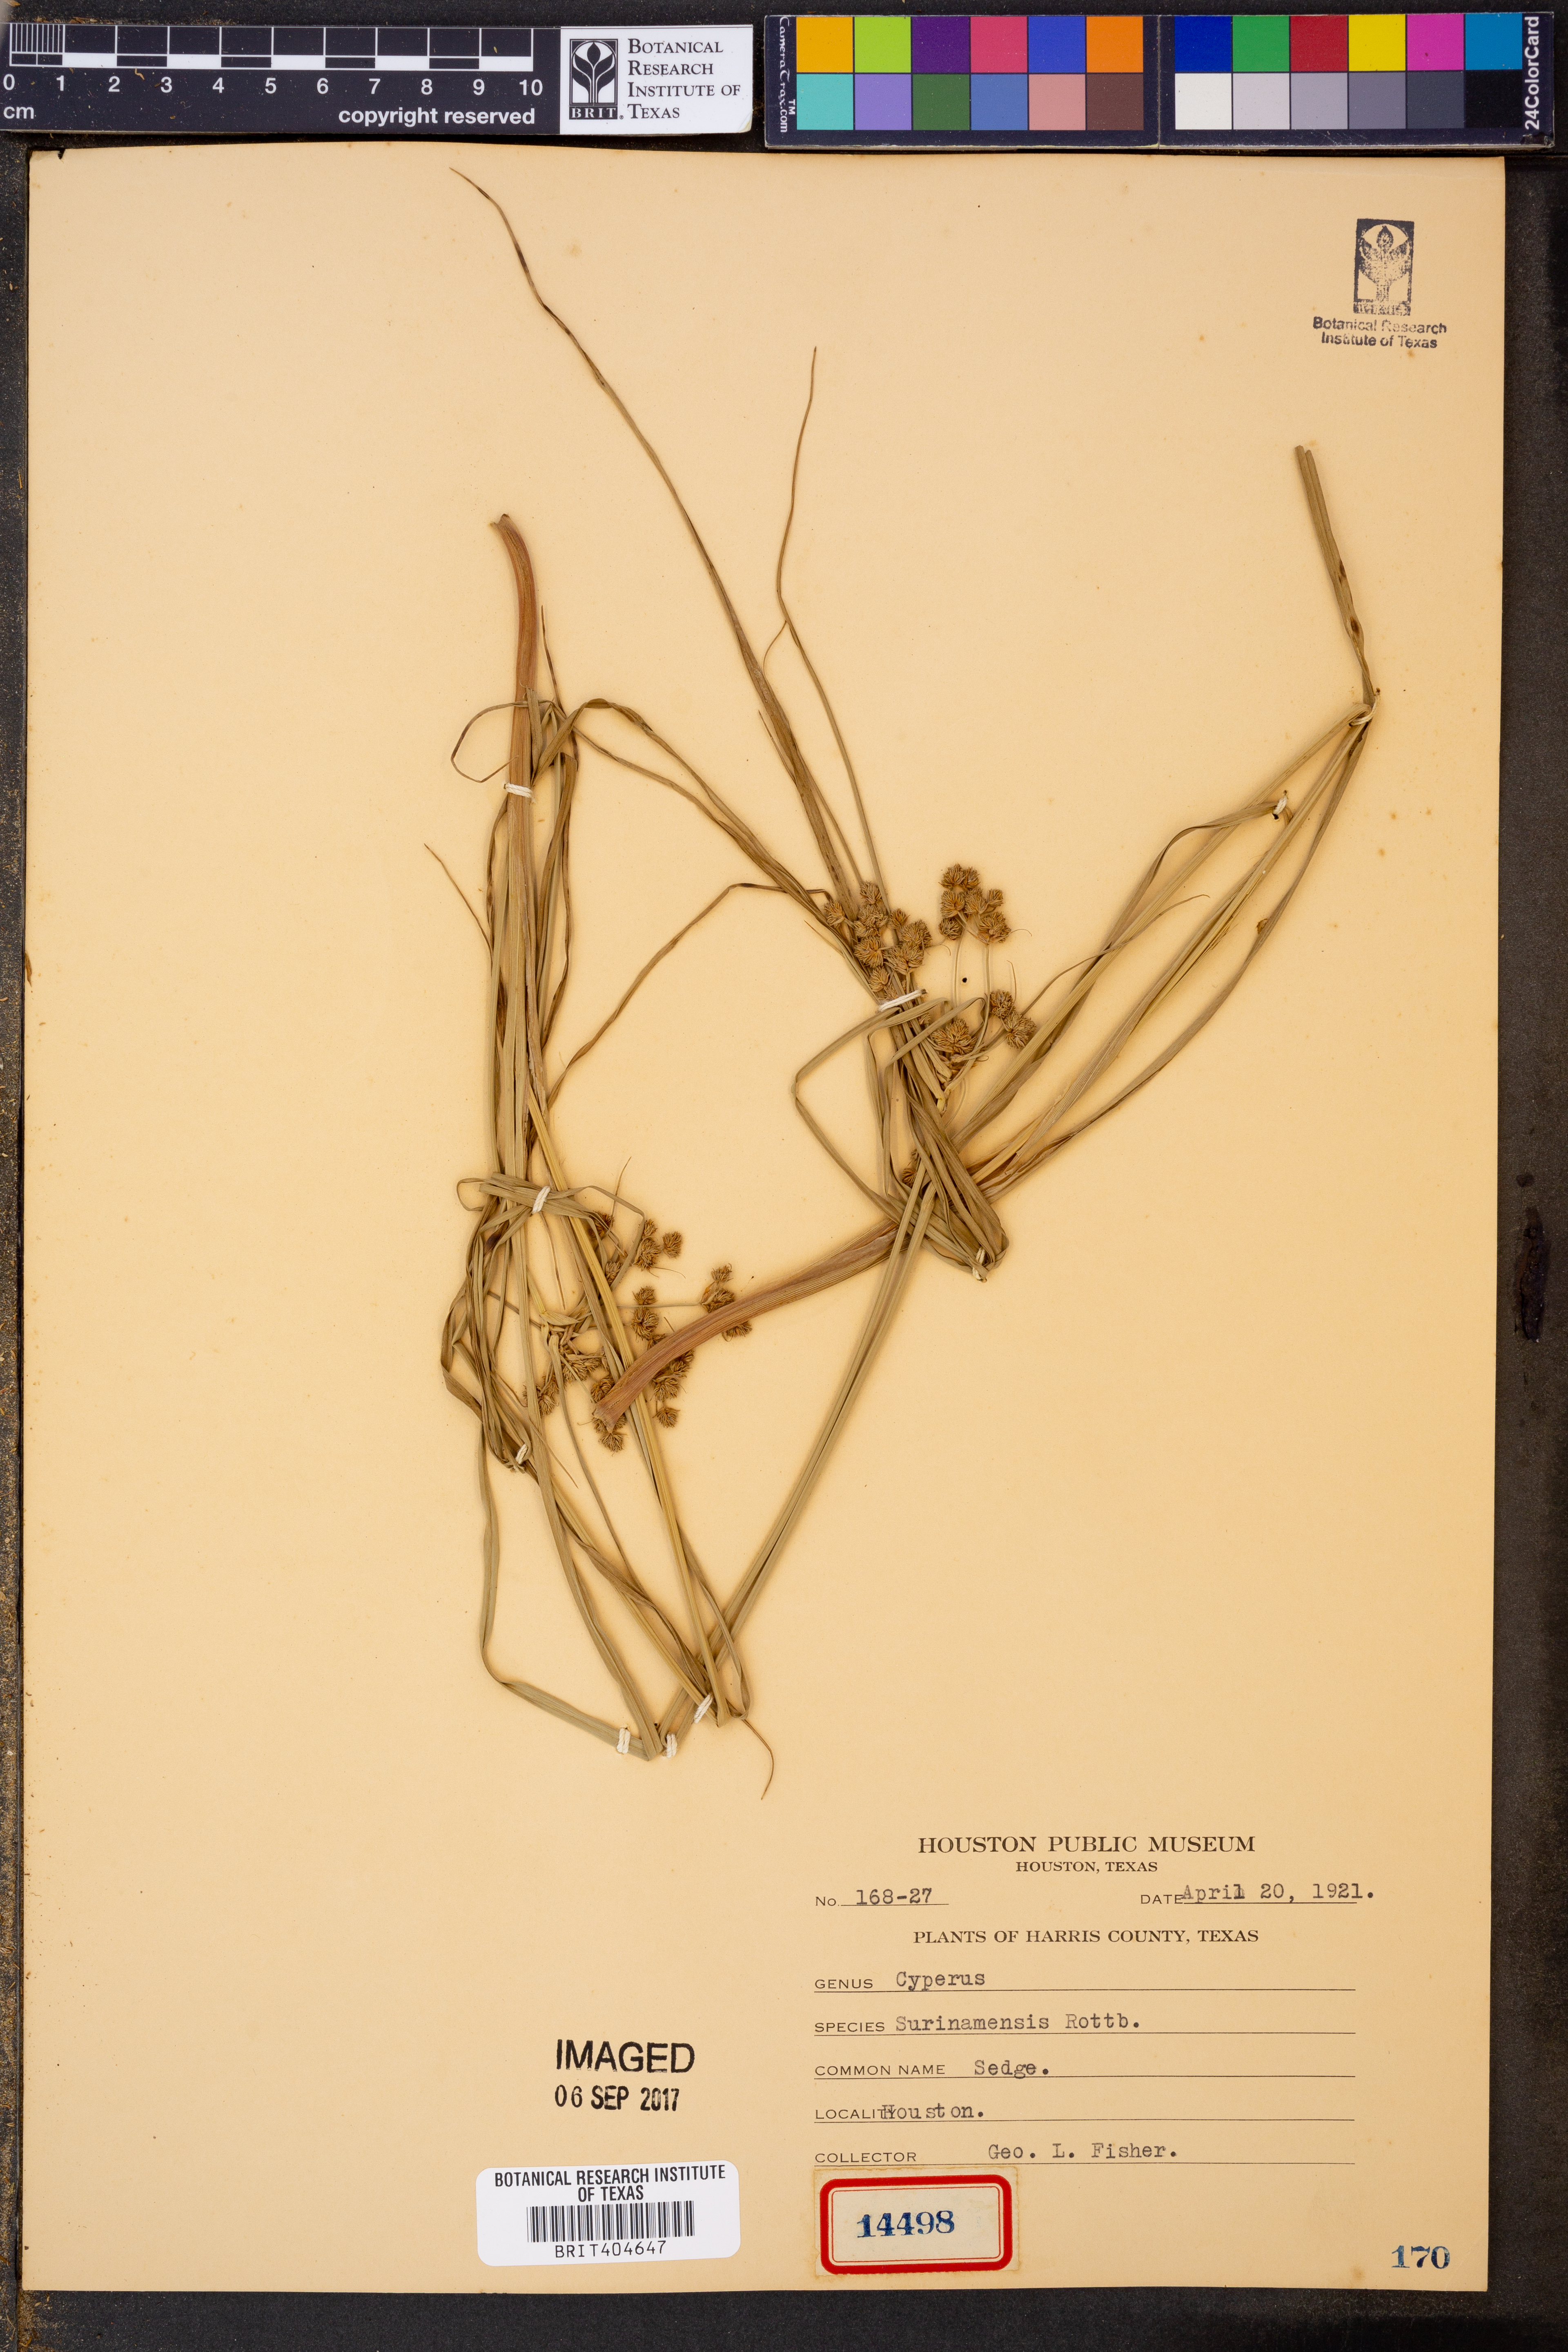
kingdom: Plantae
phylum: Tracheophyta
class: Liliopsida
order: Poales
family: Cyperaceae
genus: Cyperus
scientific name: Cyperus surinamensis
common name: Tropical flat sedge
